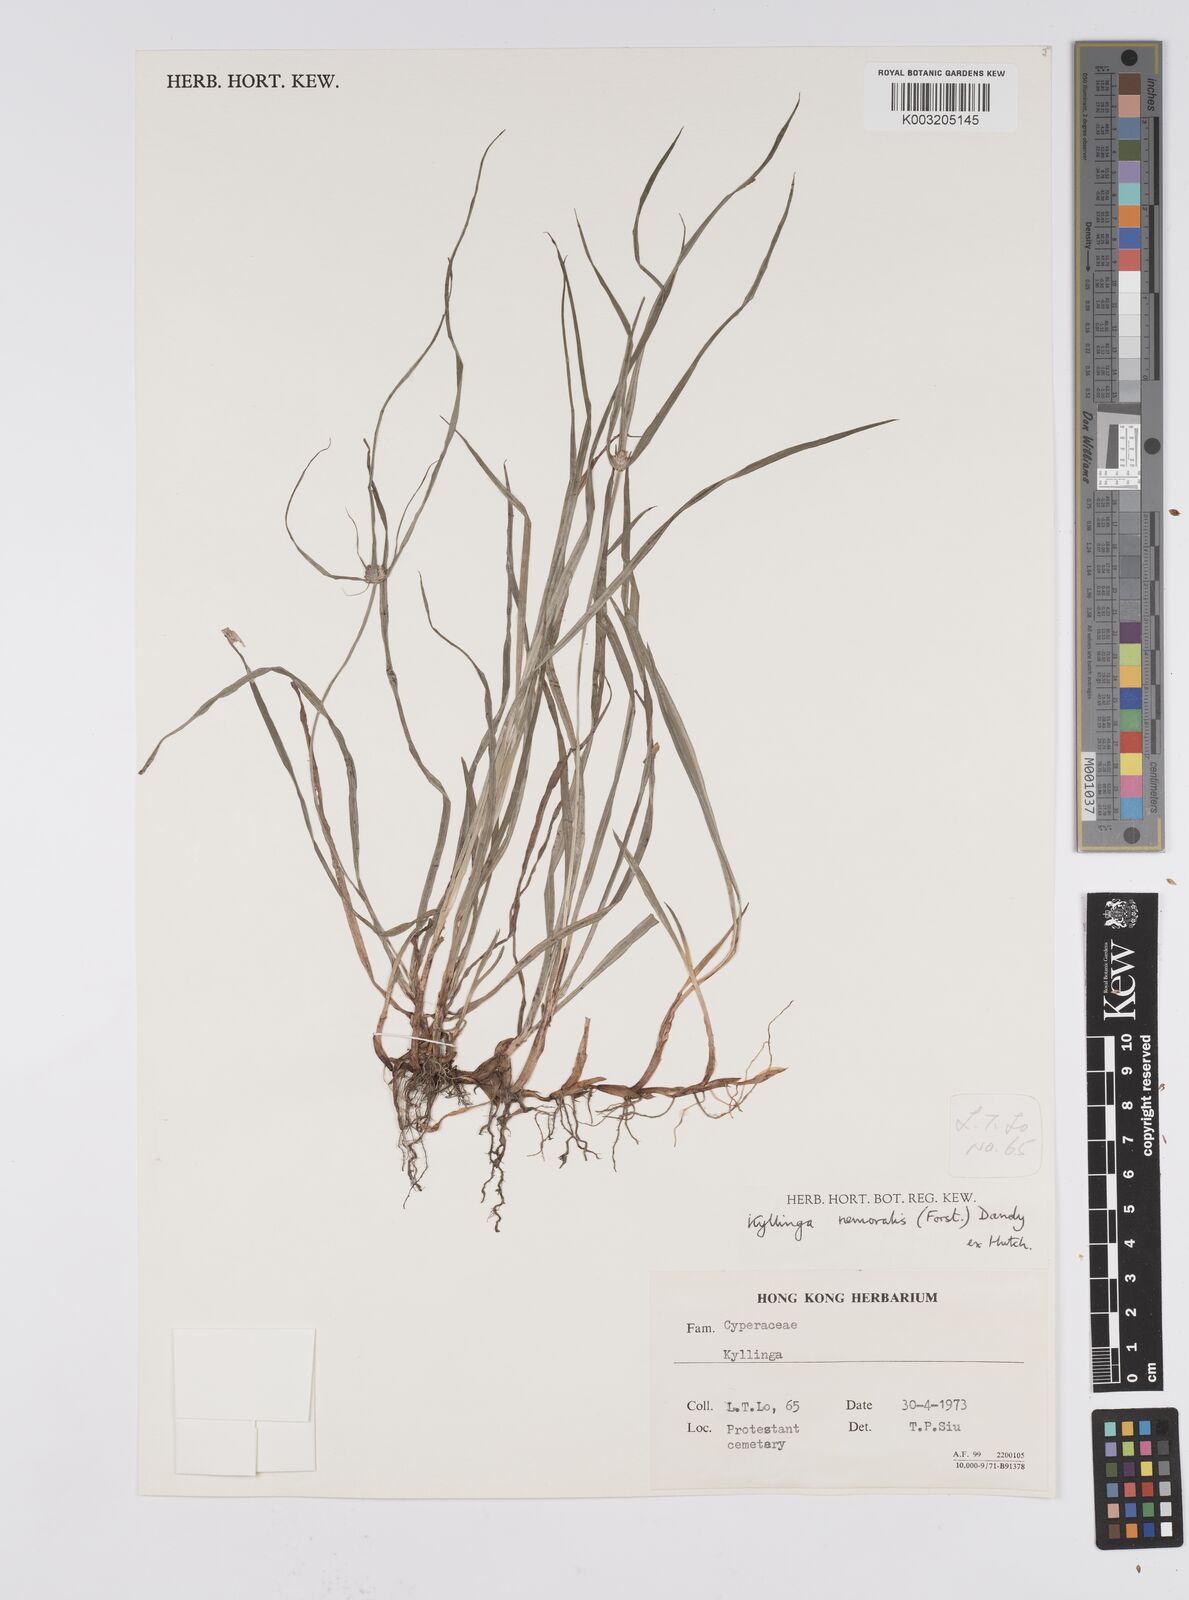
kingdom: Plantae
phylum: Tracheophyta
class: Liliopsida
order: Poales
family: Cyperaceae
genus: Cyperus
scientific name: Cyperus nemoralis
